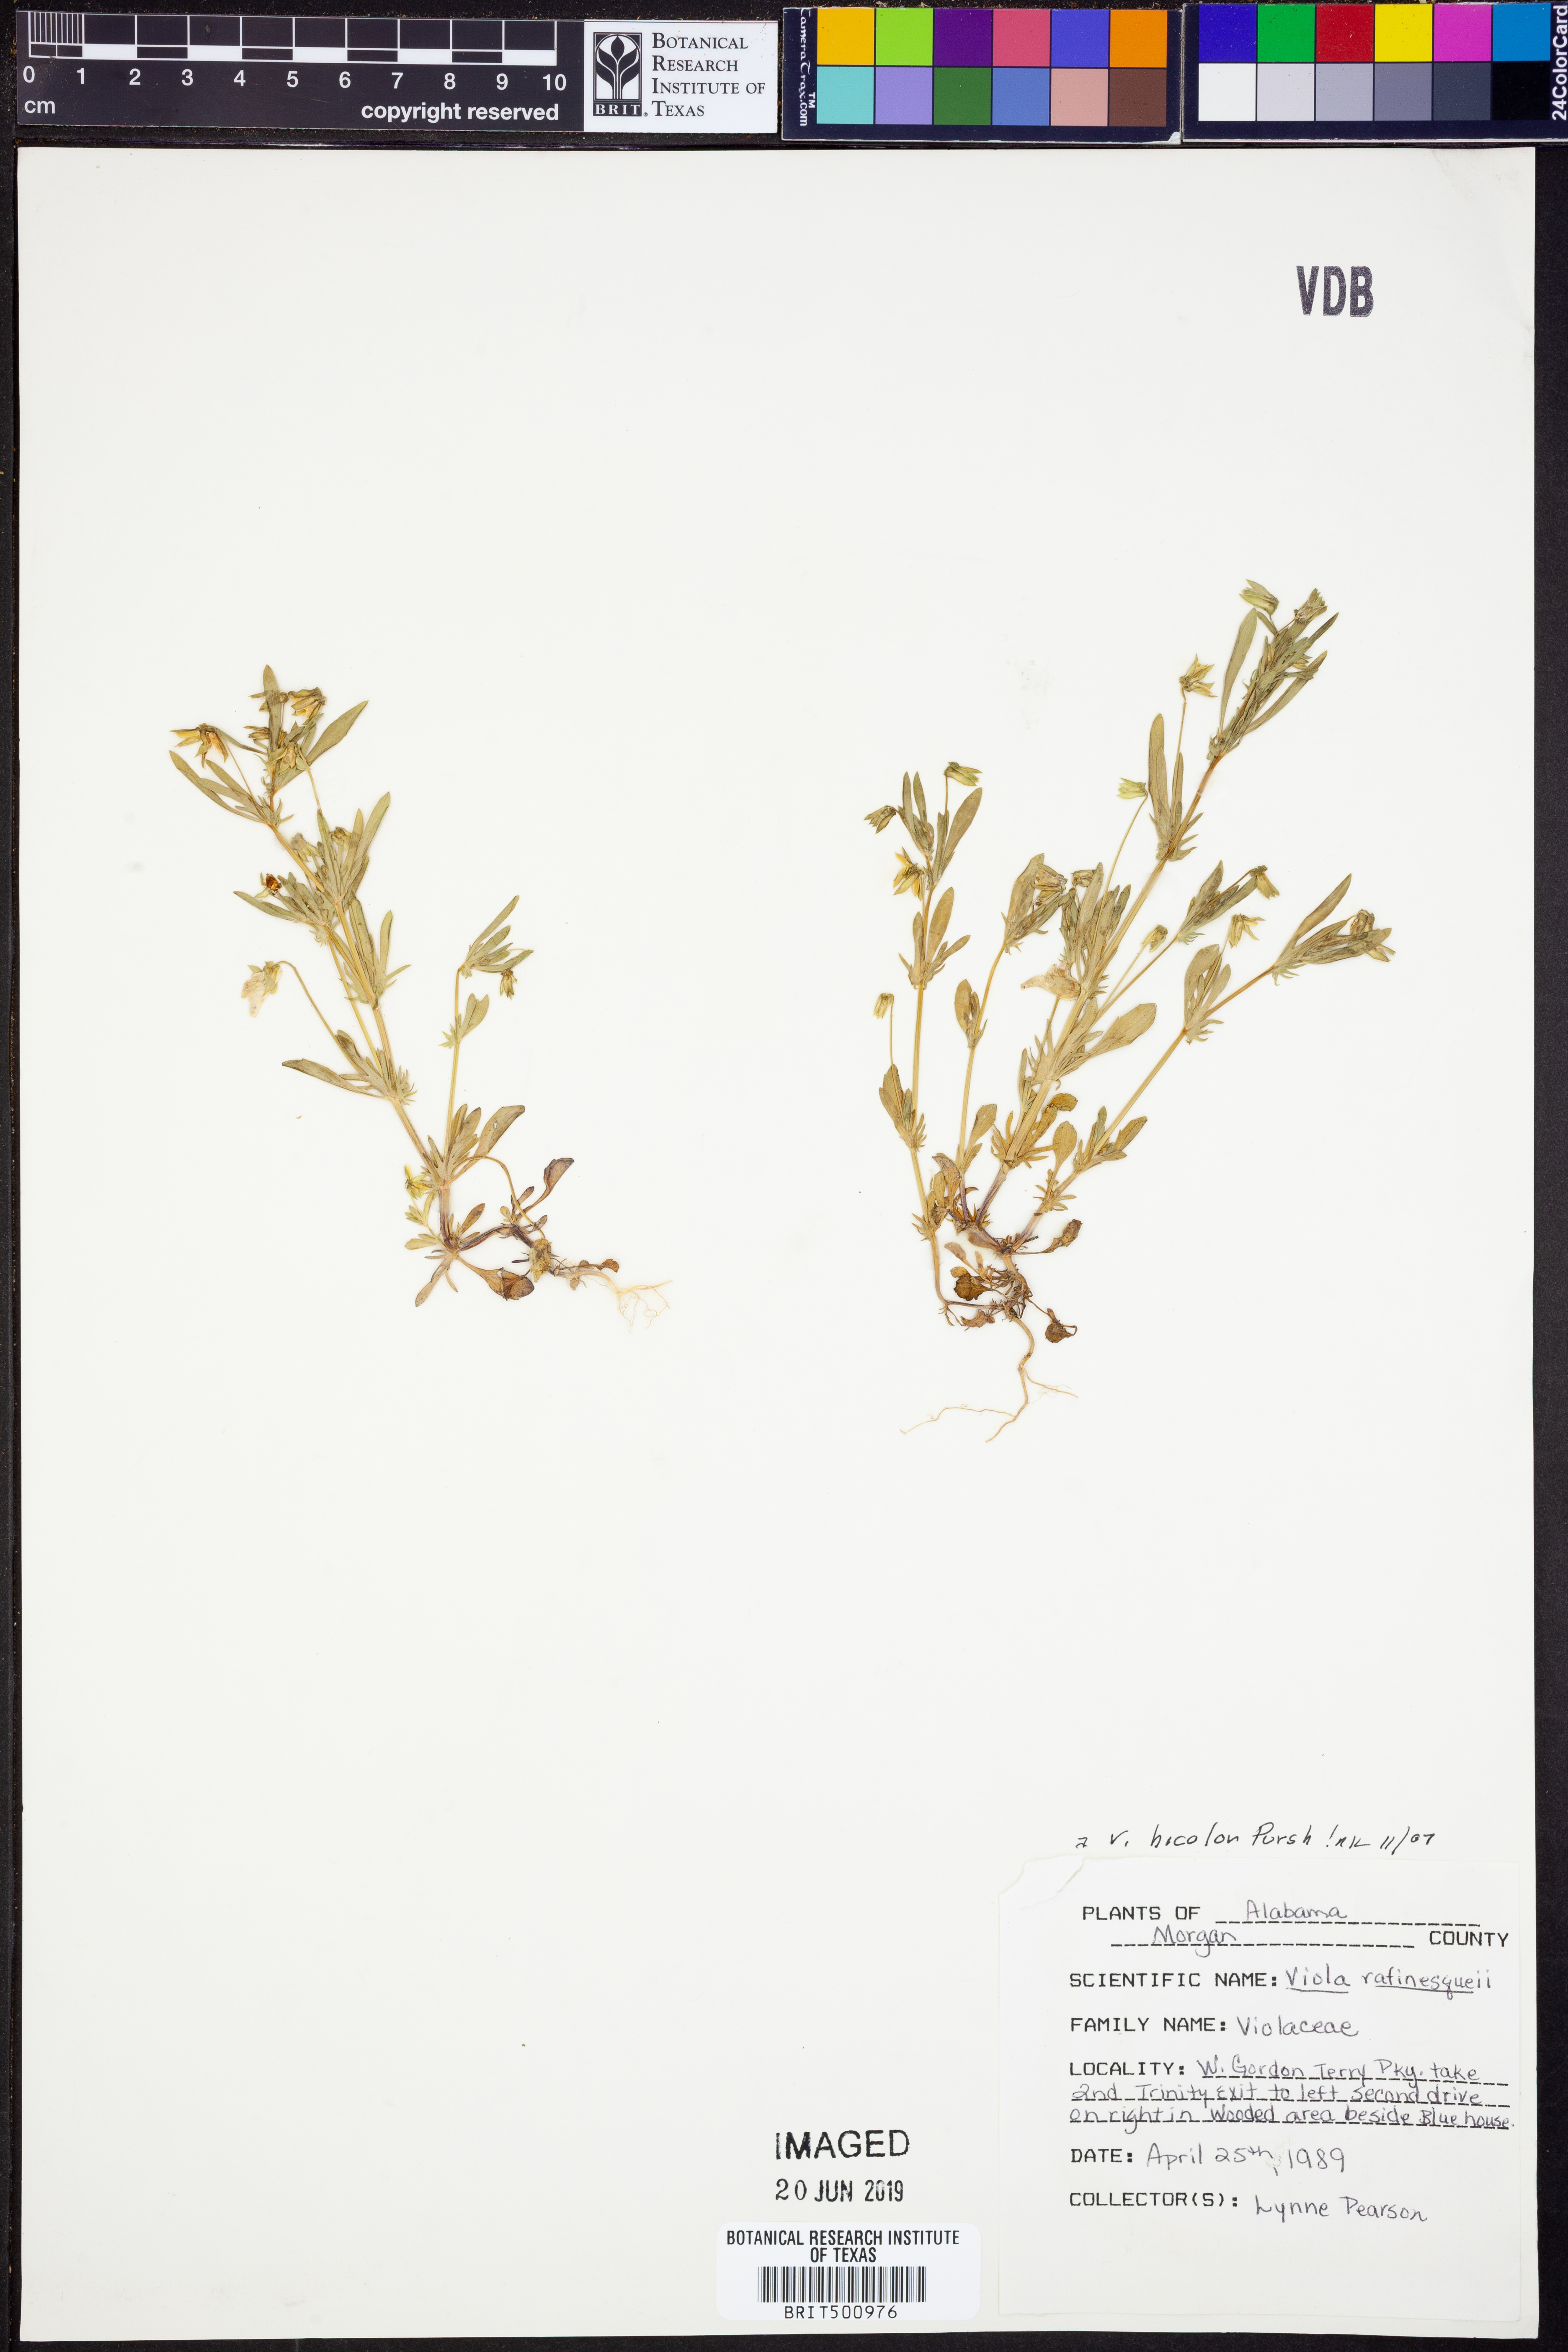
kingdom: Plantae
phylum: Tracheophyta
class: Magnoliopsida
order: Malpighiales
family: Violaceae
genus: Viola
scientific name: Viola rafinesquei
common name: American field pansy
